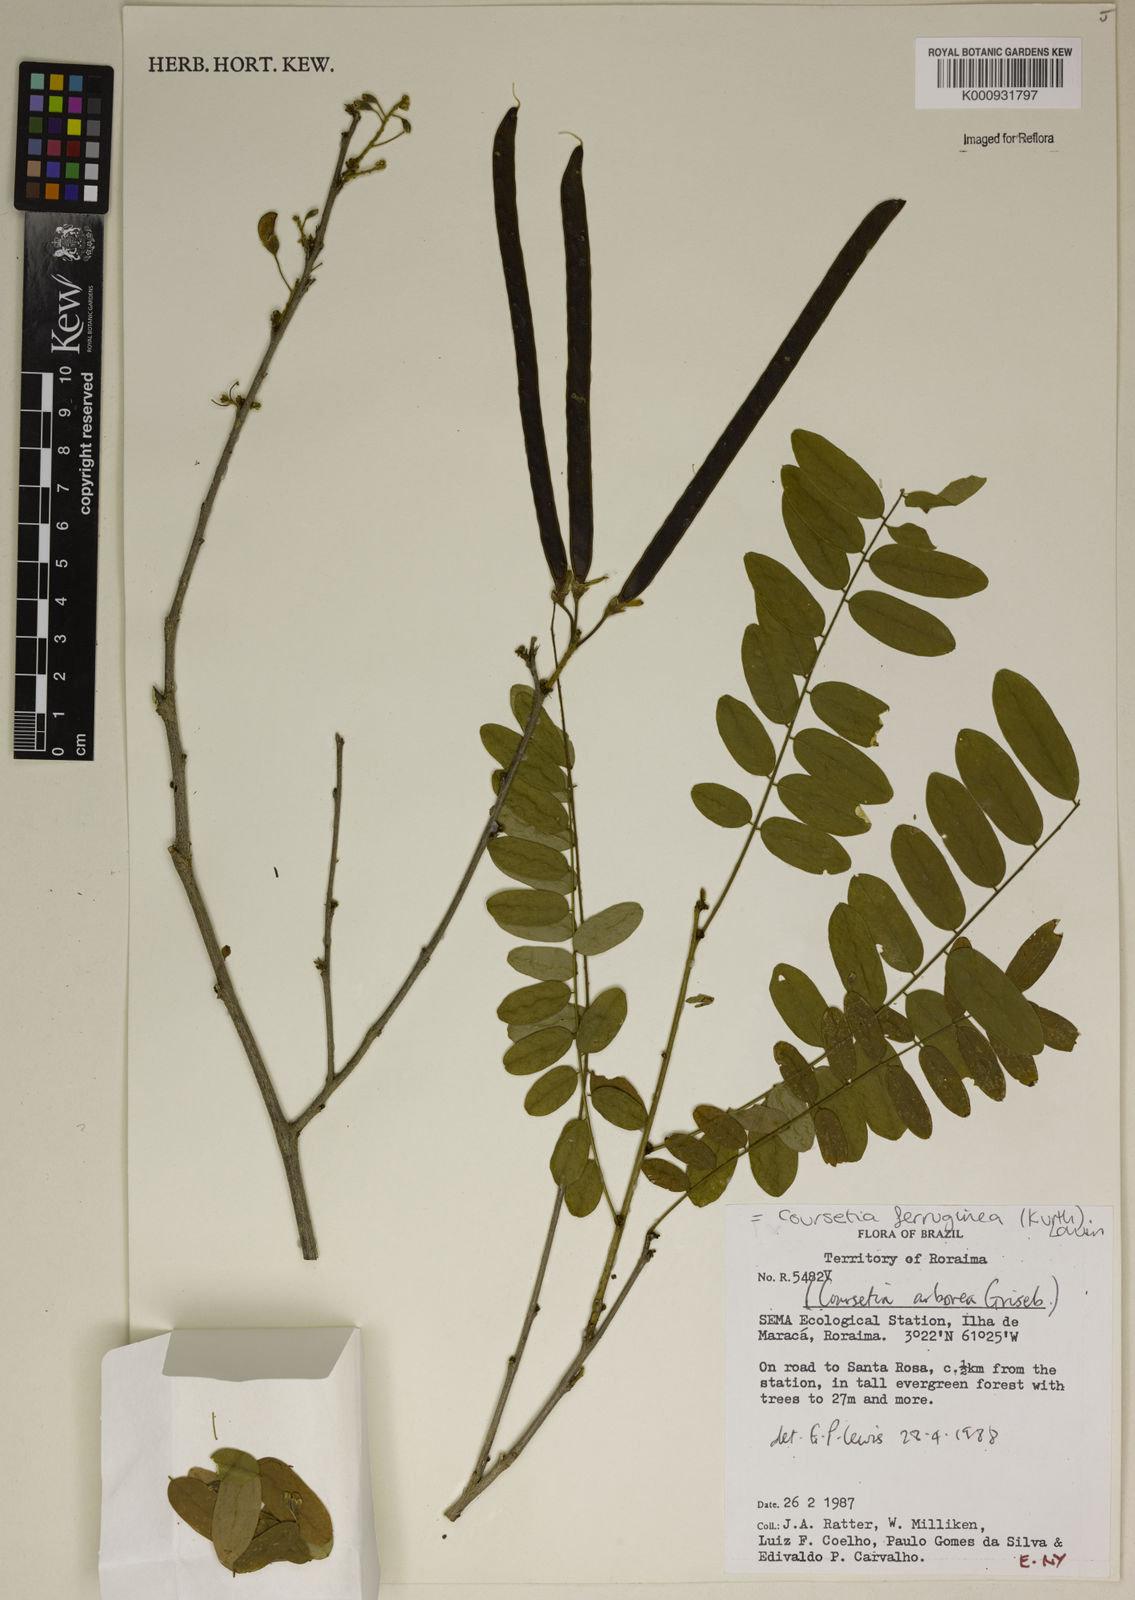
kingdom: Plantae
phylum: Tracheophyta
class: Magnoliopsida
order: Fabales
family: Fabaceae
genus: Coursetia
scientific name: Coursetia ferruginea
